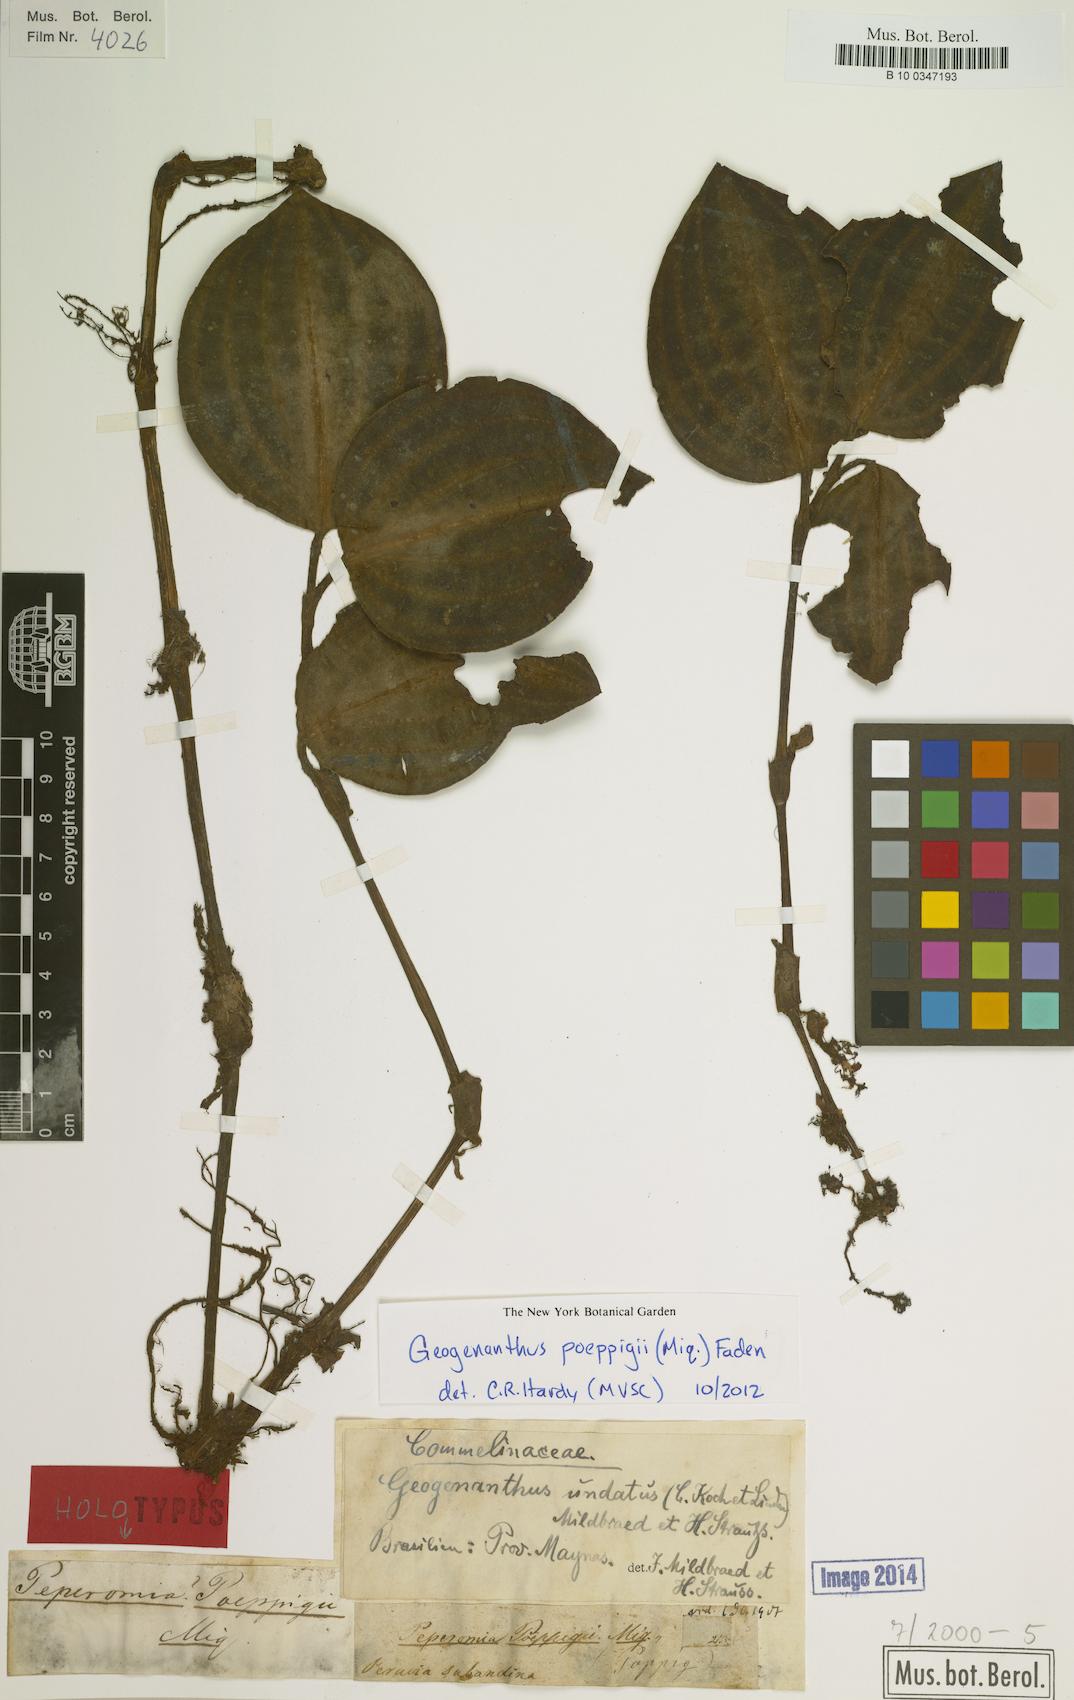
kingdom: Plantae
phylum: Tracheophyta
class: Liliopsida
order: Commelinales
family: Commelinaceae
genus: Geogenanthus
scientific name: Geogenanthus poeppigii
